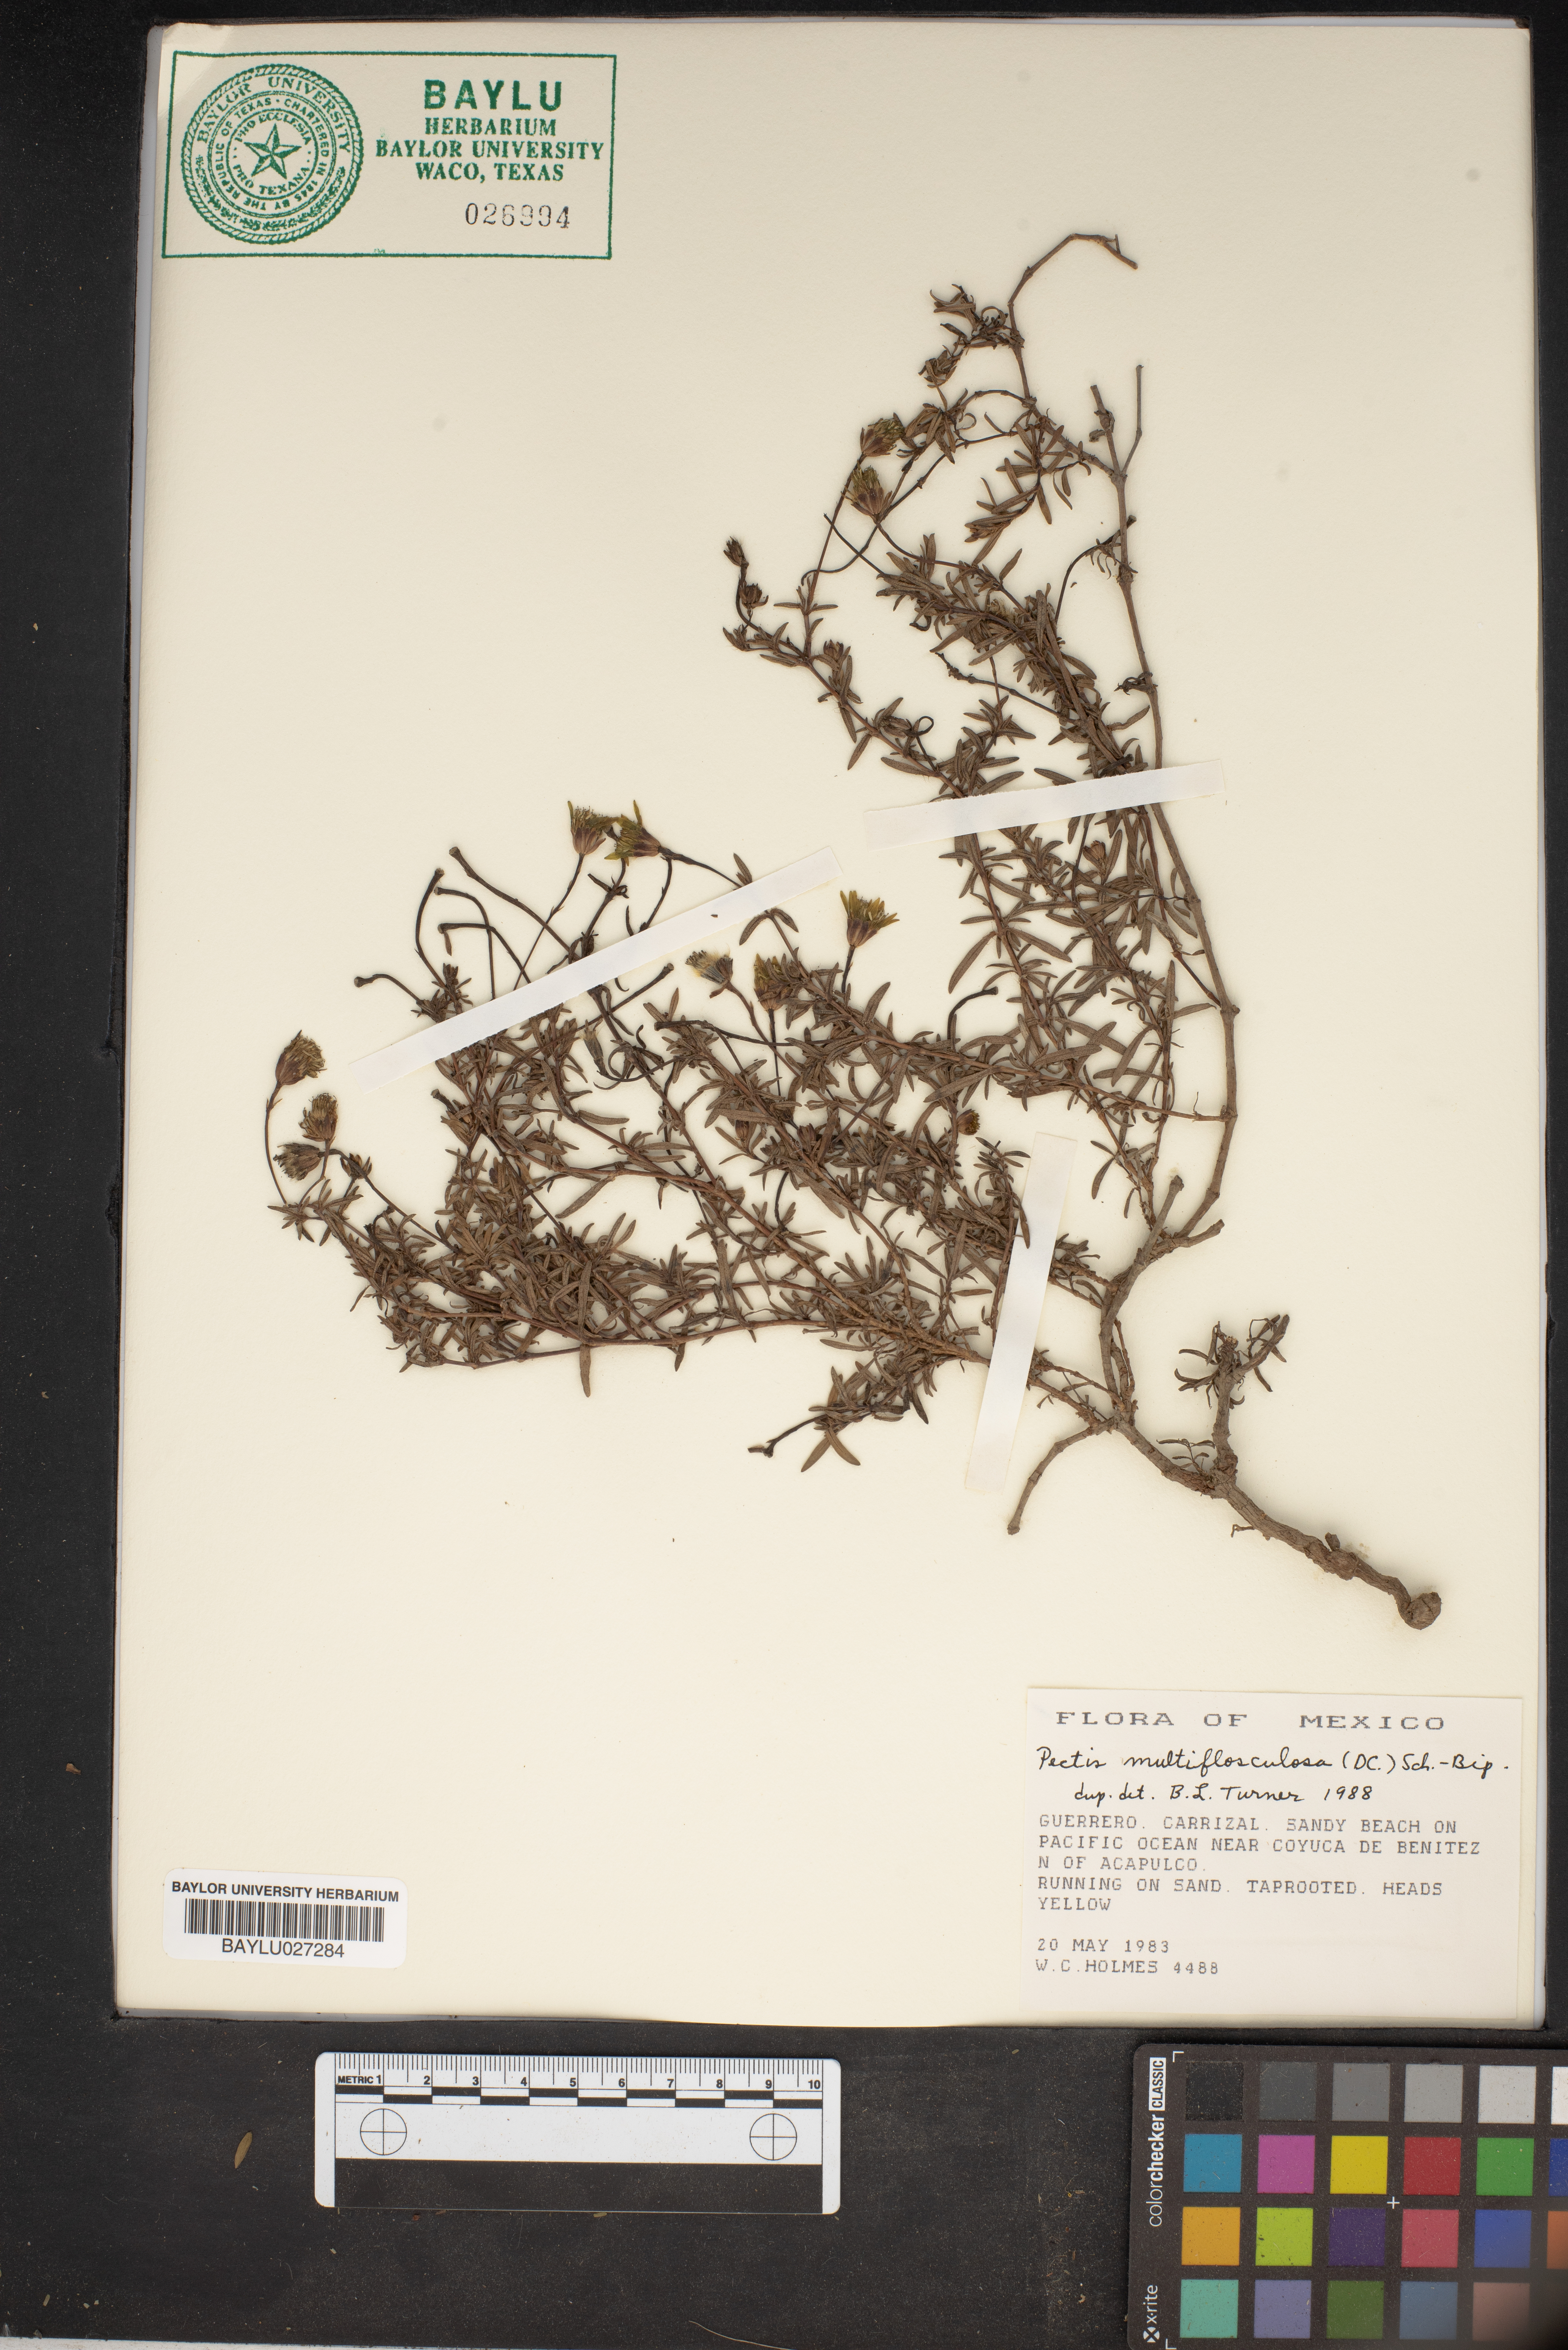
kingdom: Plantae
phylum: Tracheophyta
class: Magnoliopsida
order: Asterales
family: Asteraceae
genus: Pectis
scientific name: Pectis multiflosculosa
